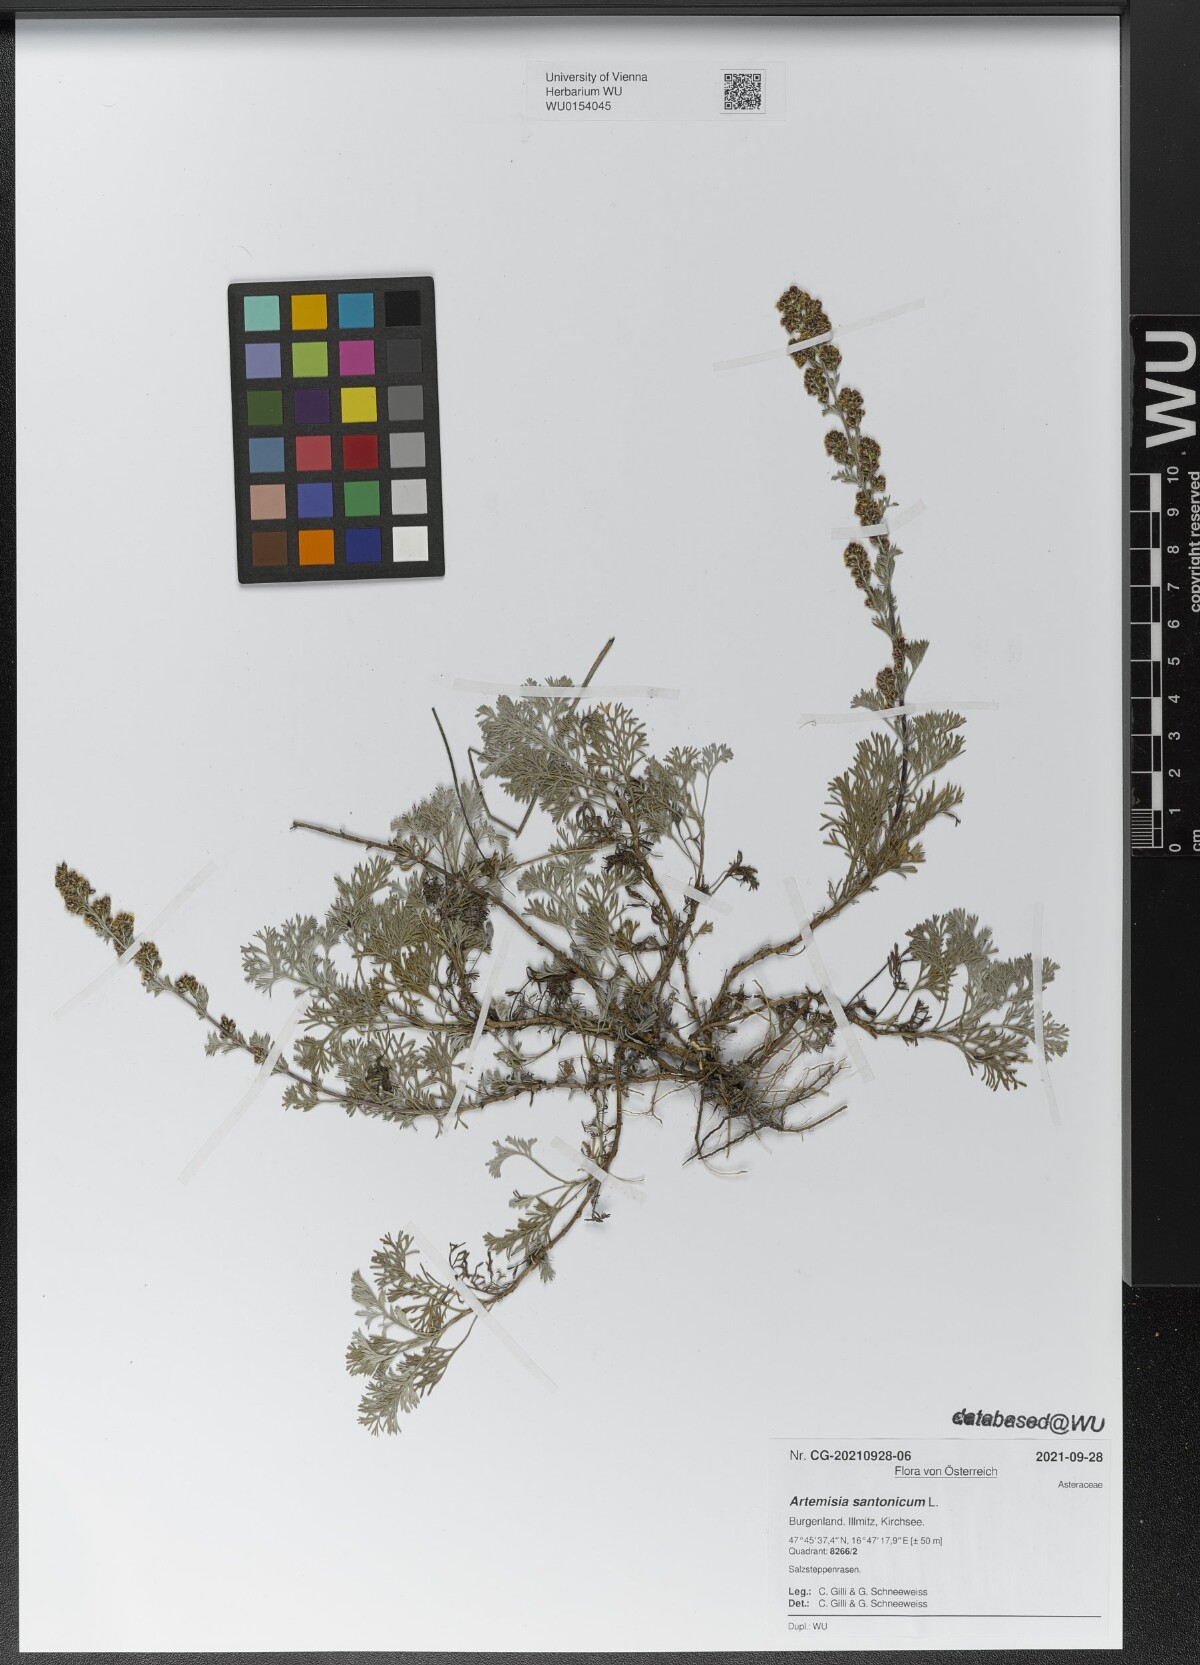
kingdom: Plantae
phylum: Tracheophyta
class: Magnoliopsida
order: Asterales
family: Asteraceae
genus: Artemisia
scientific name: Artemisia santonicum
